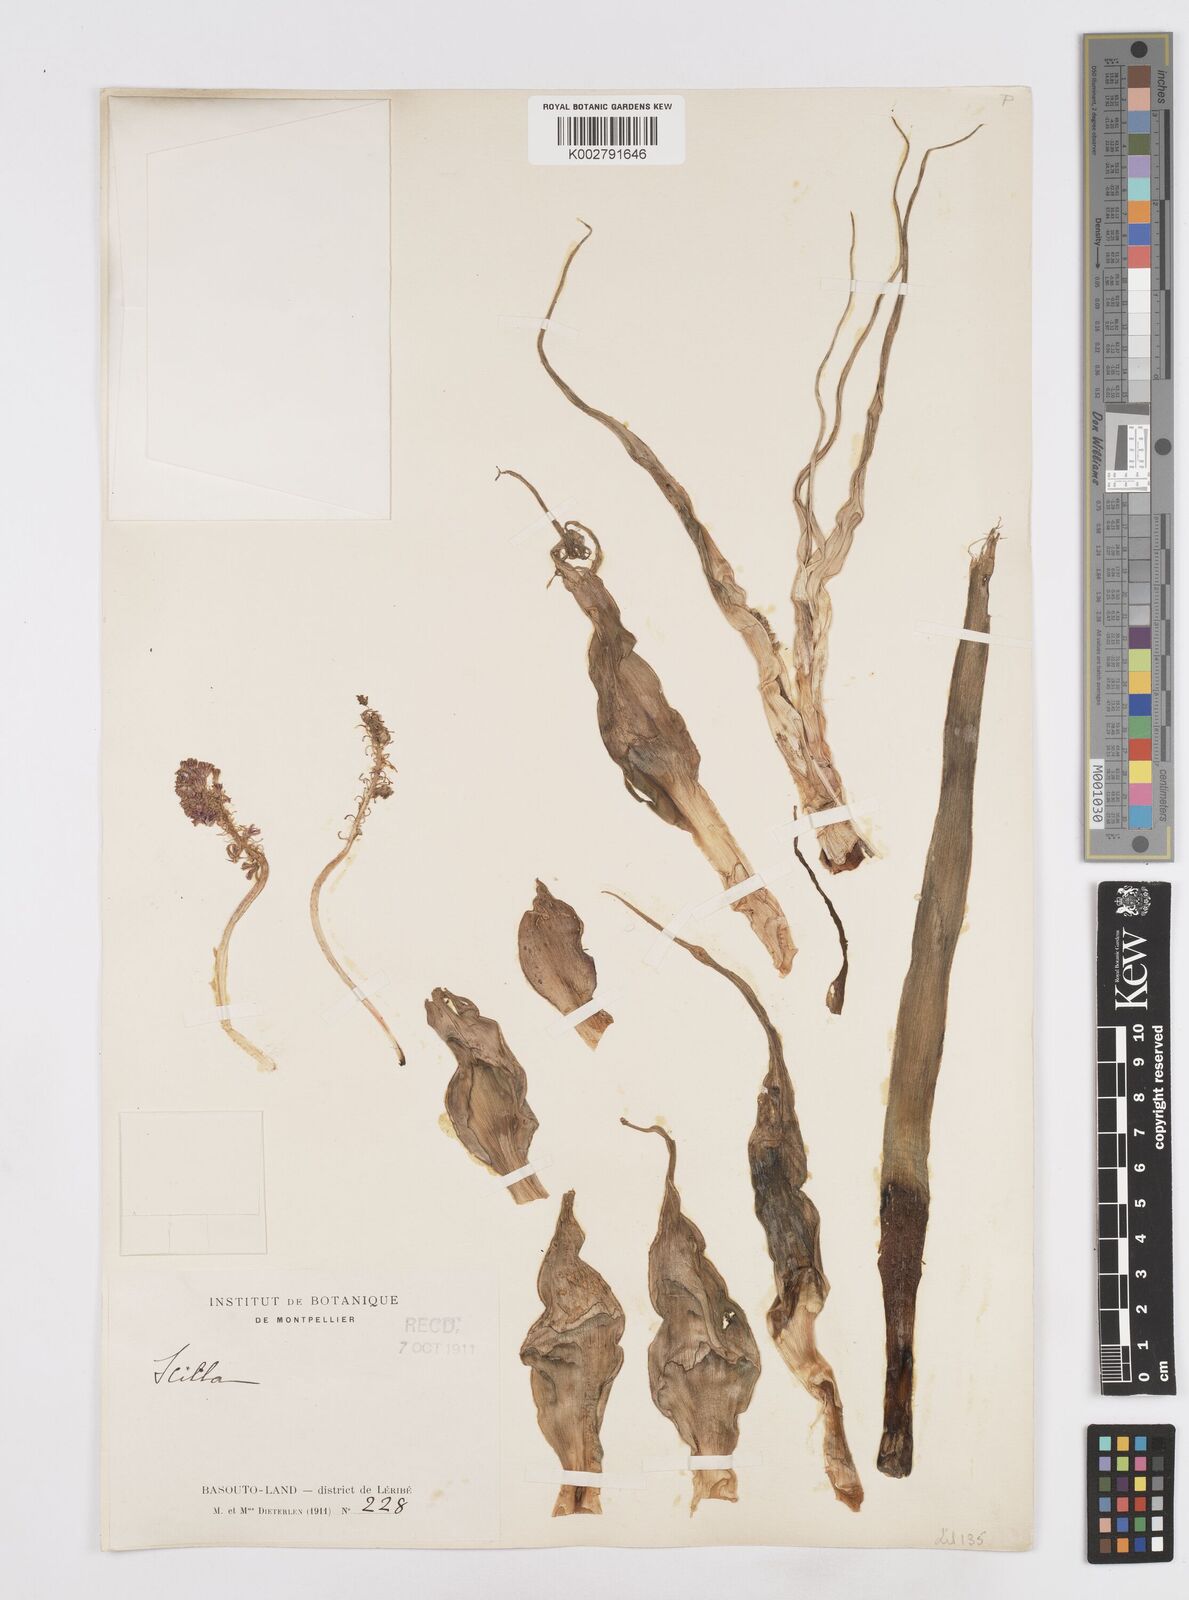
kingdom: Plantae
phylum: Tracheophyta
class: Liliopsida
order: Asparagales
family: Asparagaceae
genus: Scilla
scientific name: Scilla
